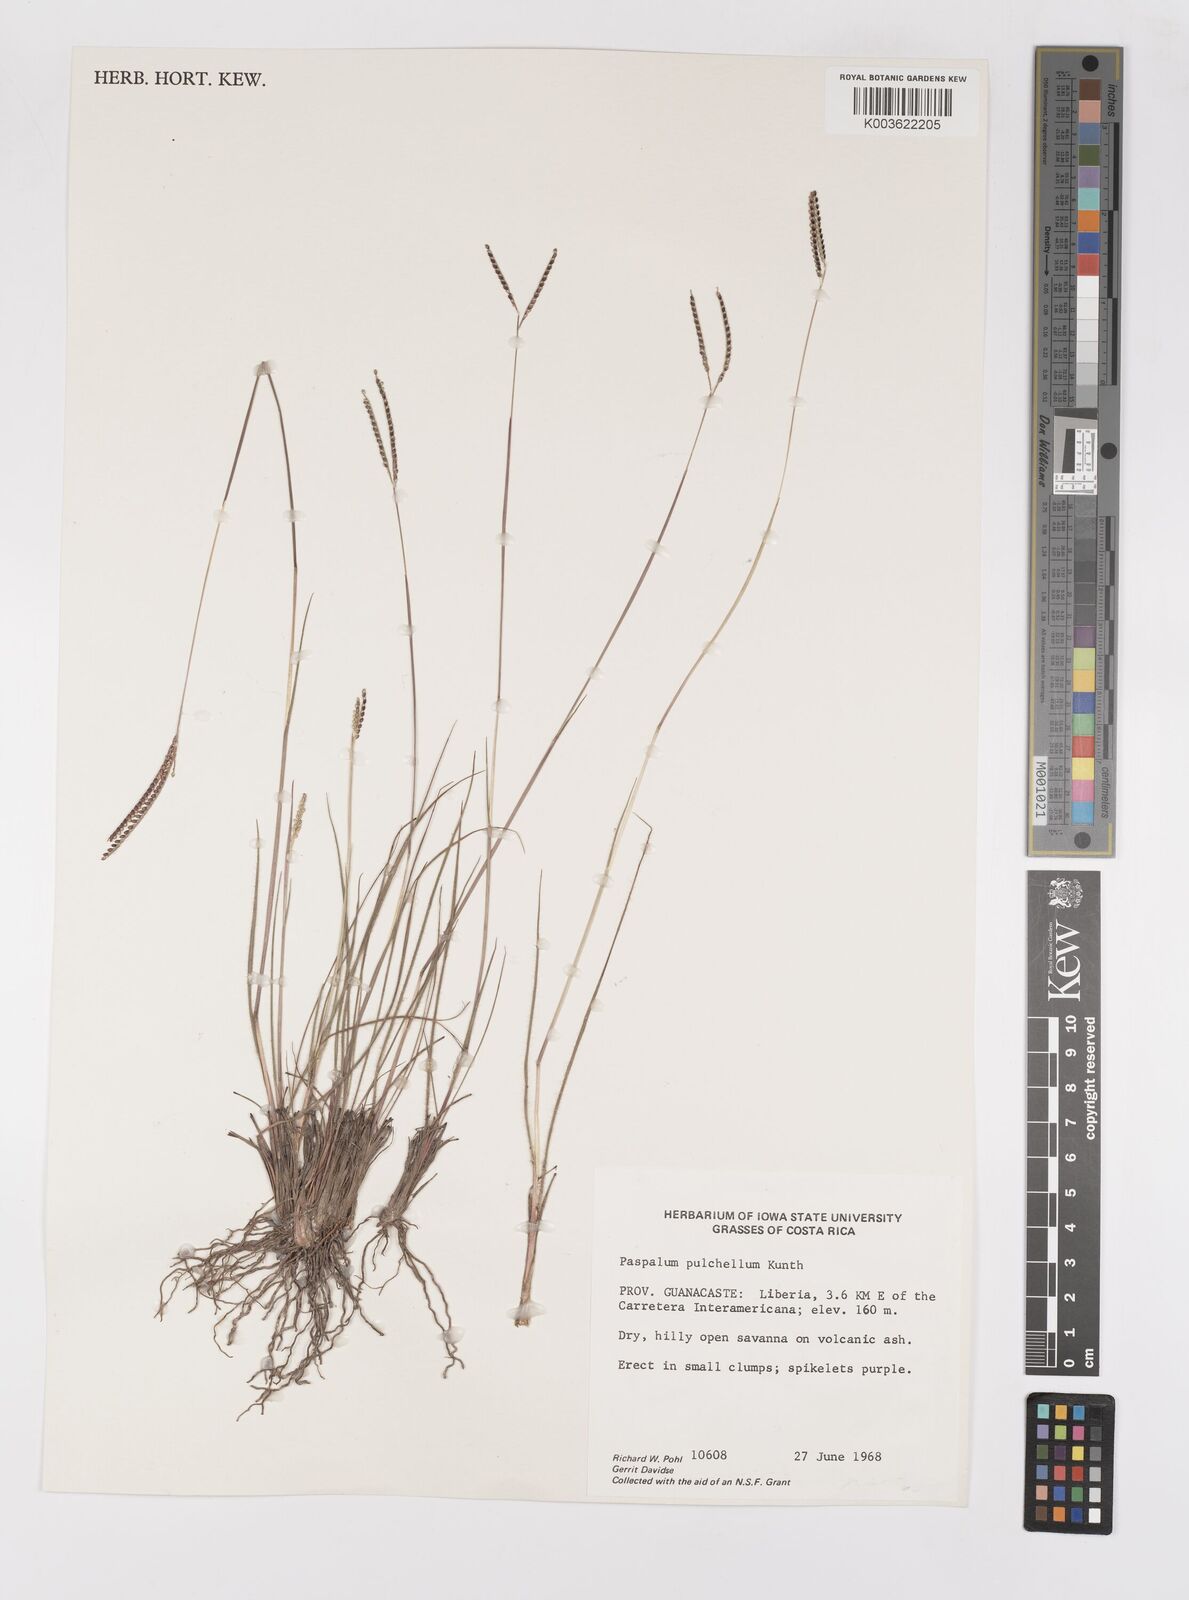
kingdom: Plantae
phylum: Tracheophyta
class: Liliopsida
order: Poales
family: Poaceae
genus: Paspalum
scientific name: Paspalum pulchellum
